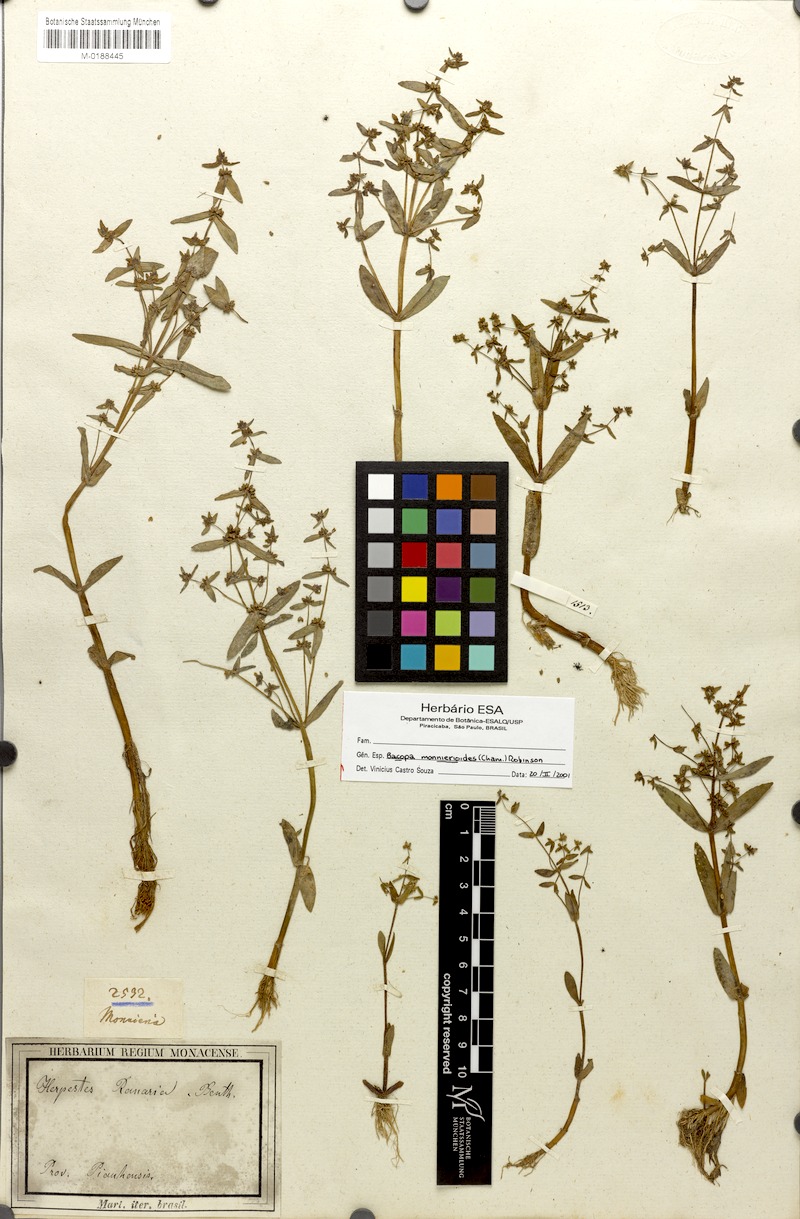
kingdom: Plantae
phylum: Tracheophyta
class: Magnoliopsida
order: Lamiales
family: Plantaginaceae
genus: Bacopa
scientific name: Bacopa monnierioides
